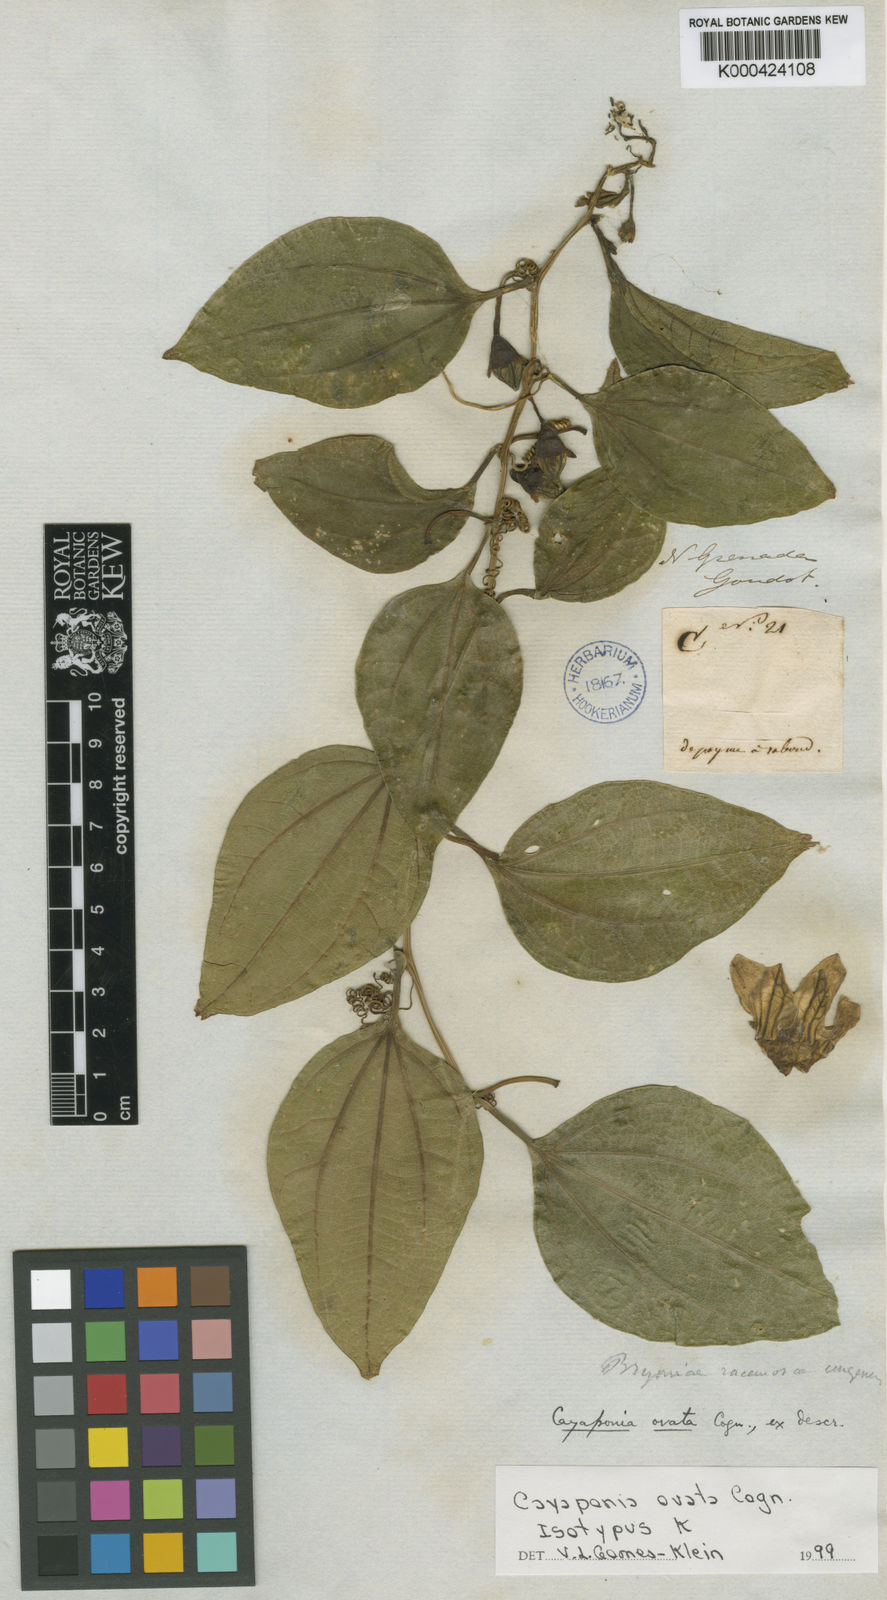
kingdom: Plantae
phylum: Tracheophyta
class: Magnoliopsida
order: Cucurbitales
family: Cucurbitaceae
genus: Cayaponia
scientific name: Cayaponia ovata
